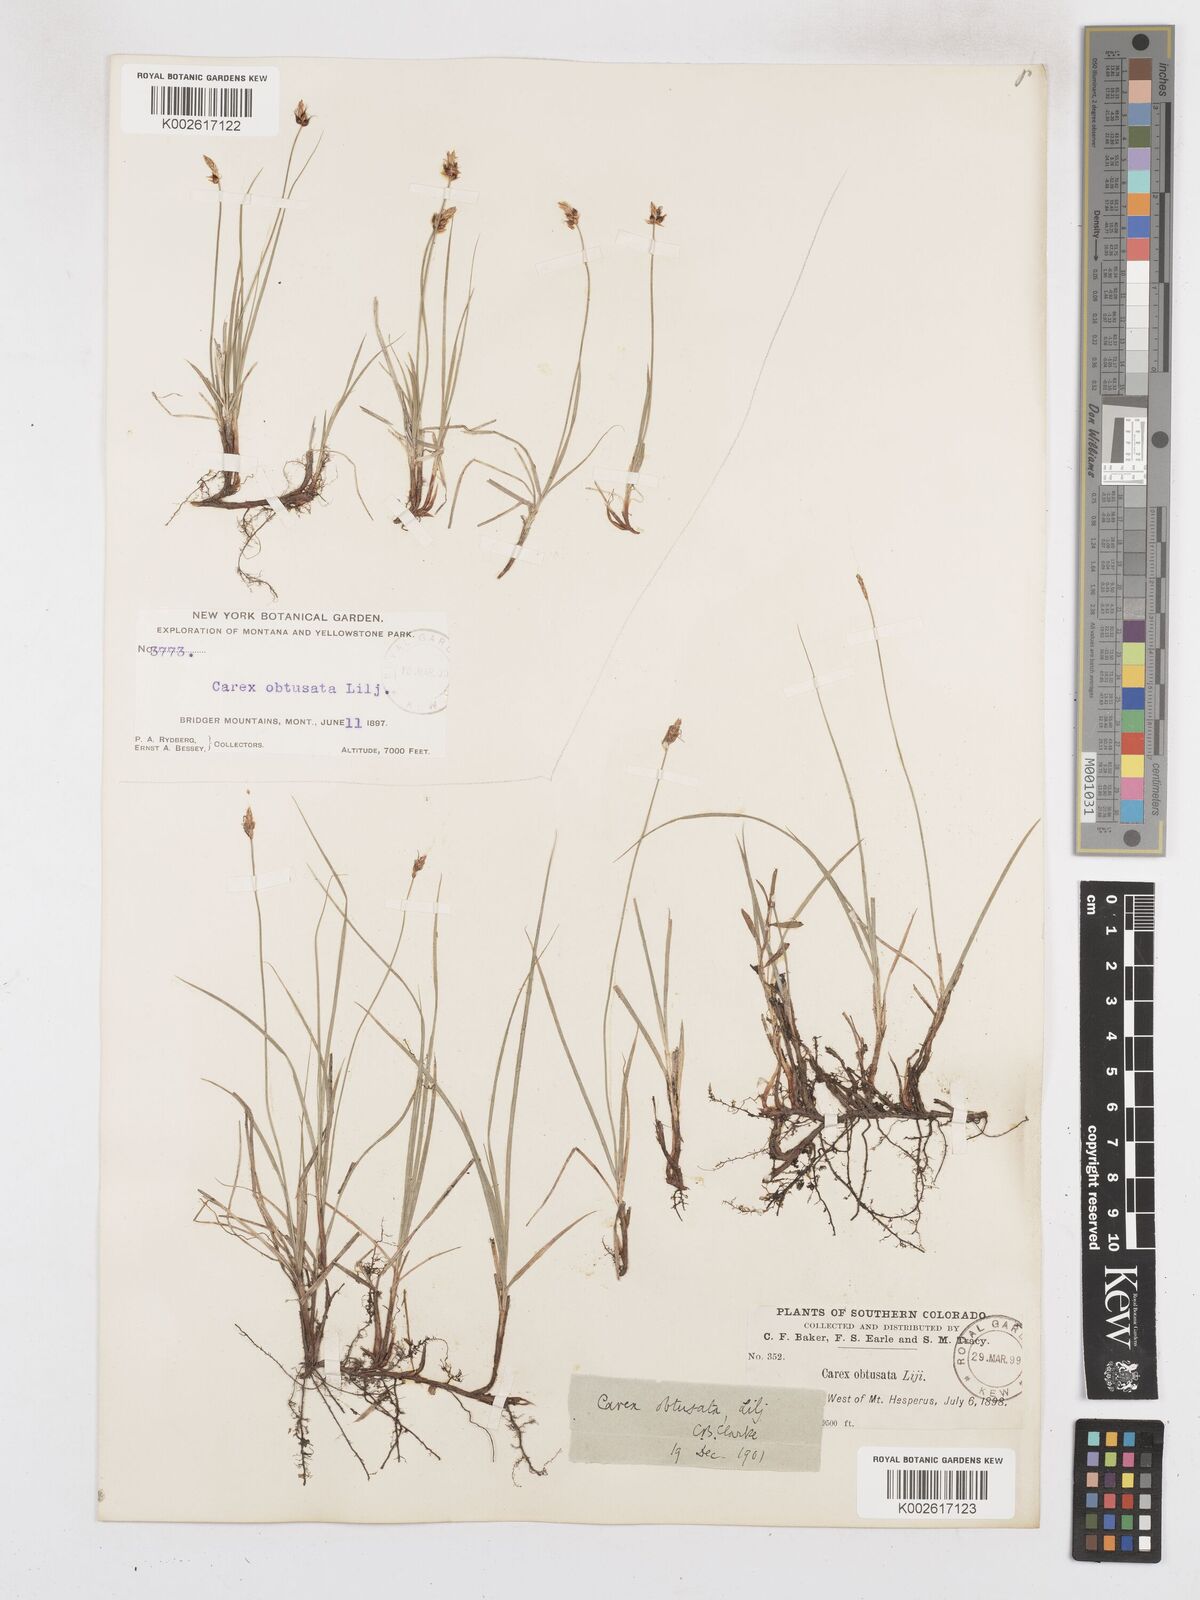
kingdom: Plantae
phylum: Tracheophyta
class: Liliopsida
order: Poales
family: Cyperaceae
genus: Carex
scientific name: Carex obtusata
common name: Blunt sedge
